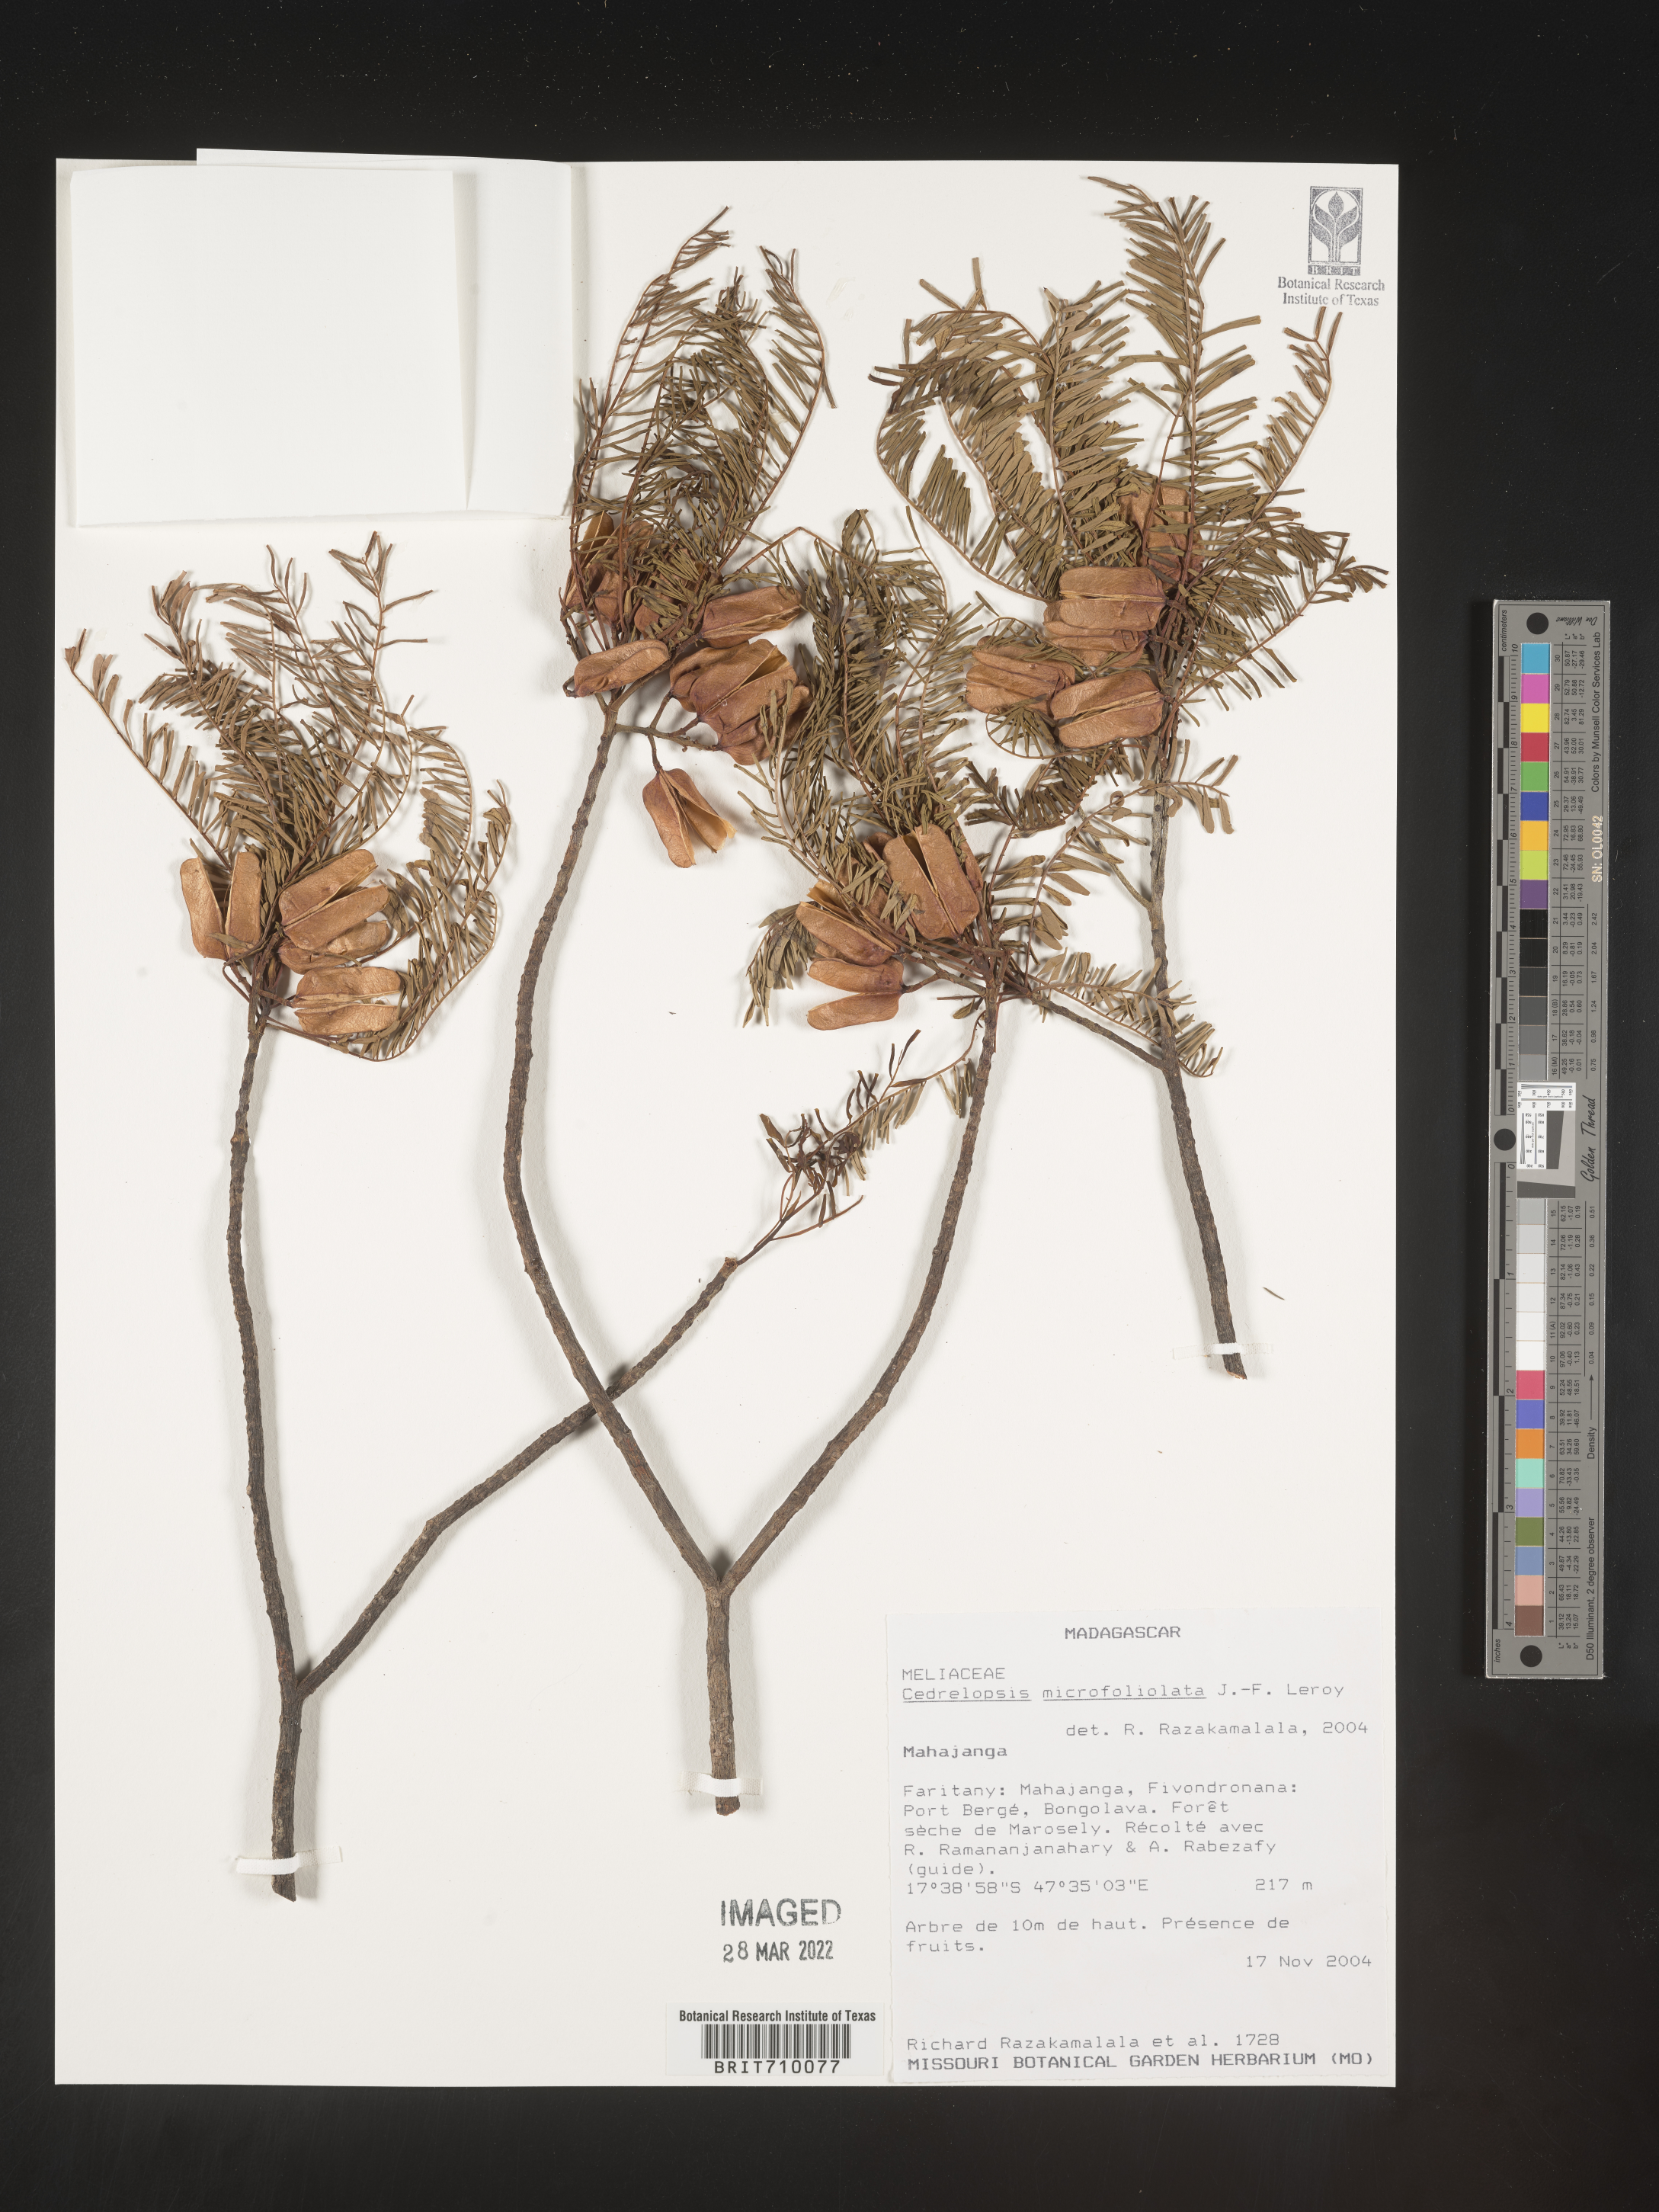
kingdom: Plantae
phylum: Tracheophyta
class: Magnoliopsida
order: Sapindales
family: Rutaceae
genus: Cedrelopsis
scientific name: Cedrelopsis
